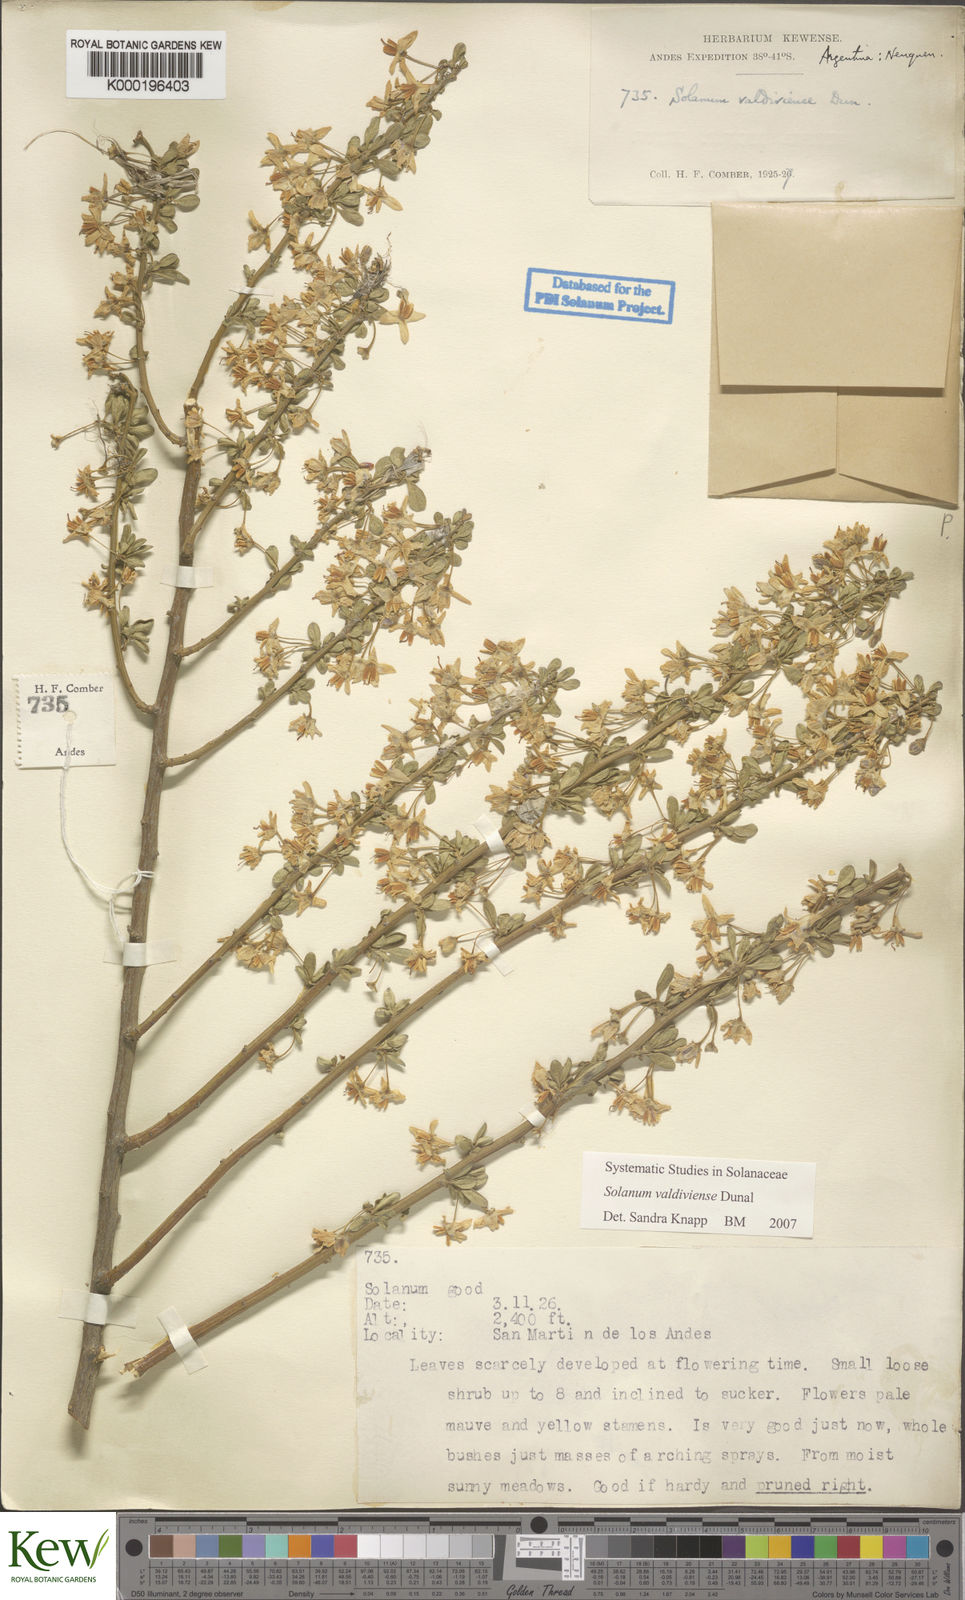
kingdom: Plantae
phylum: Tracheophyta
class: Magnoliopsida
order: Solanales
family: Solanaceae
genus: Solanum
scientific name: Solanum valdiviense
